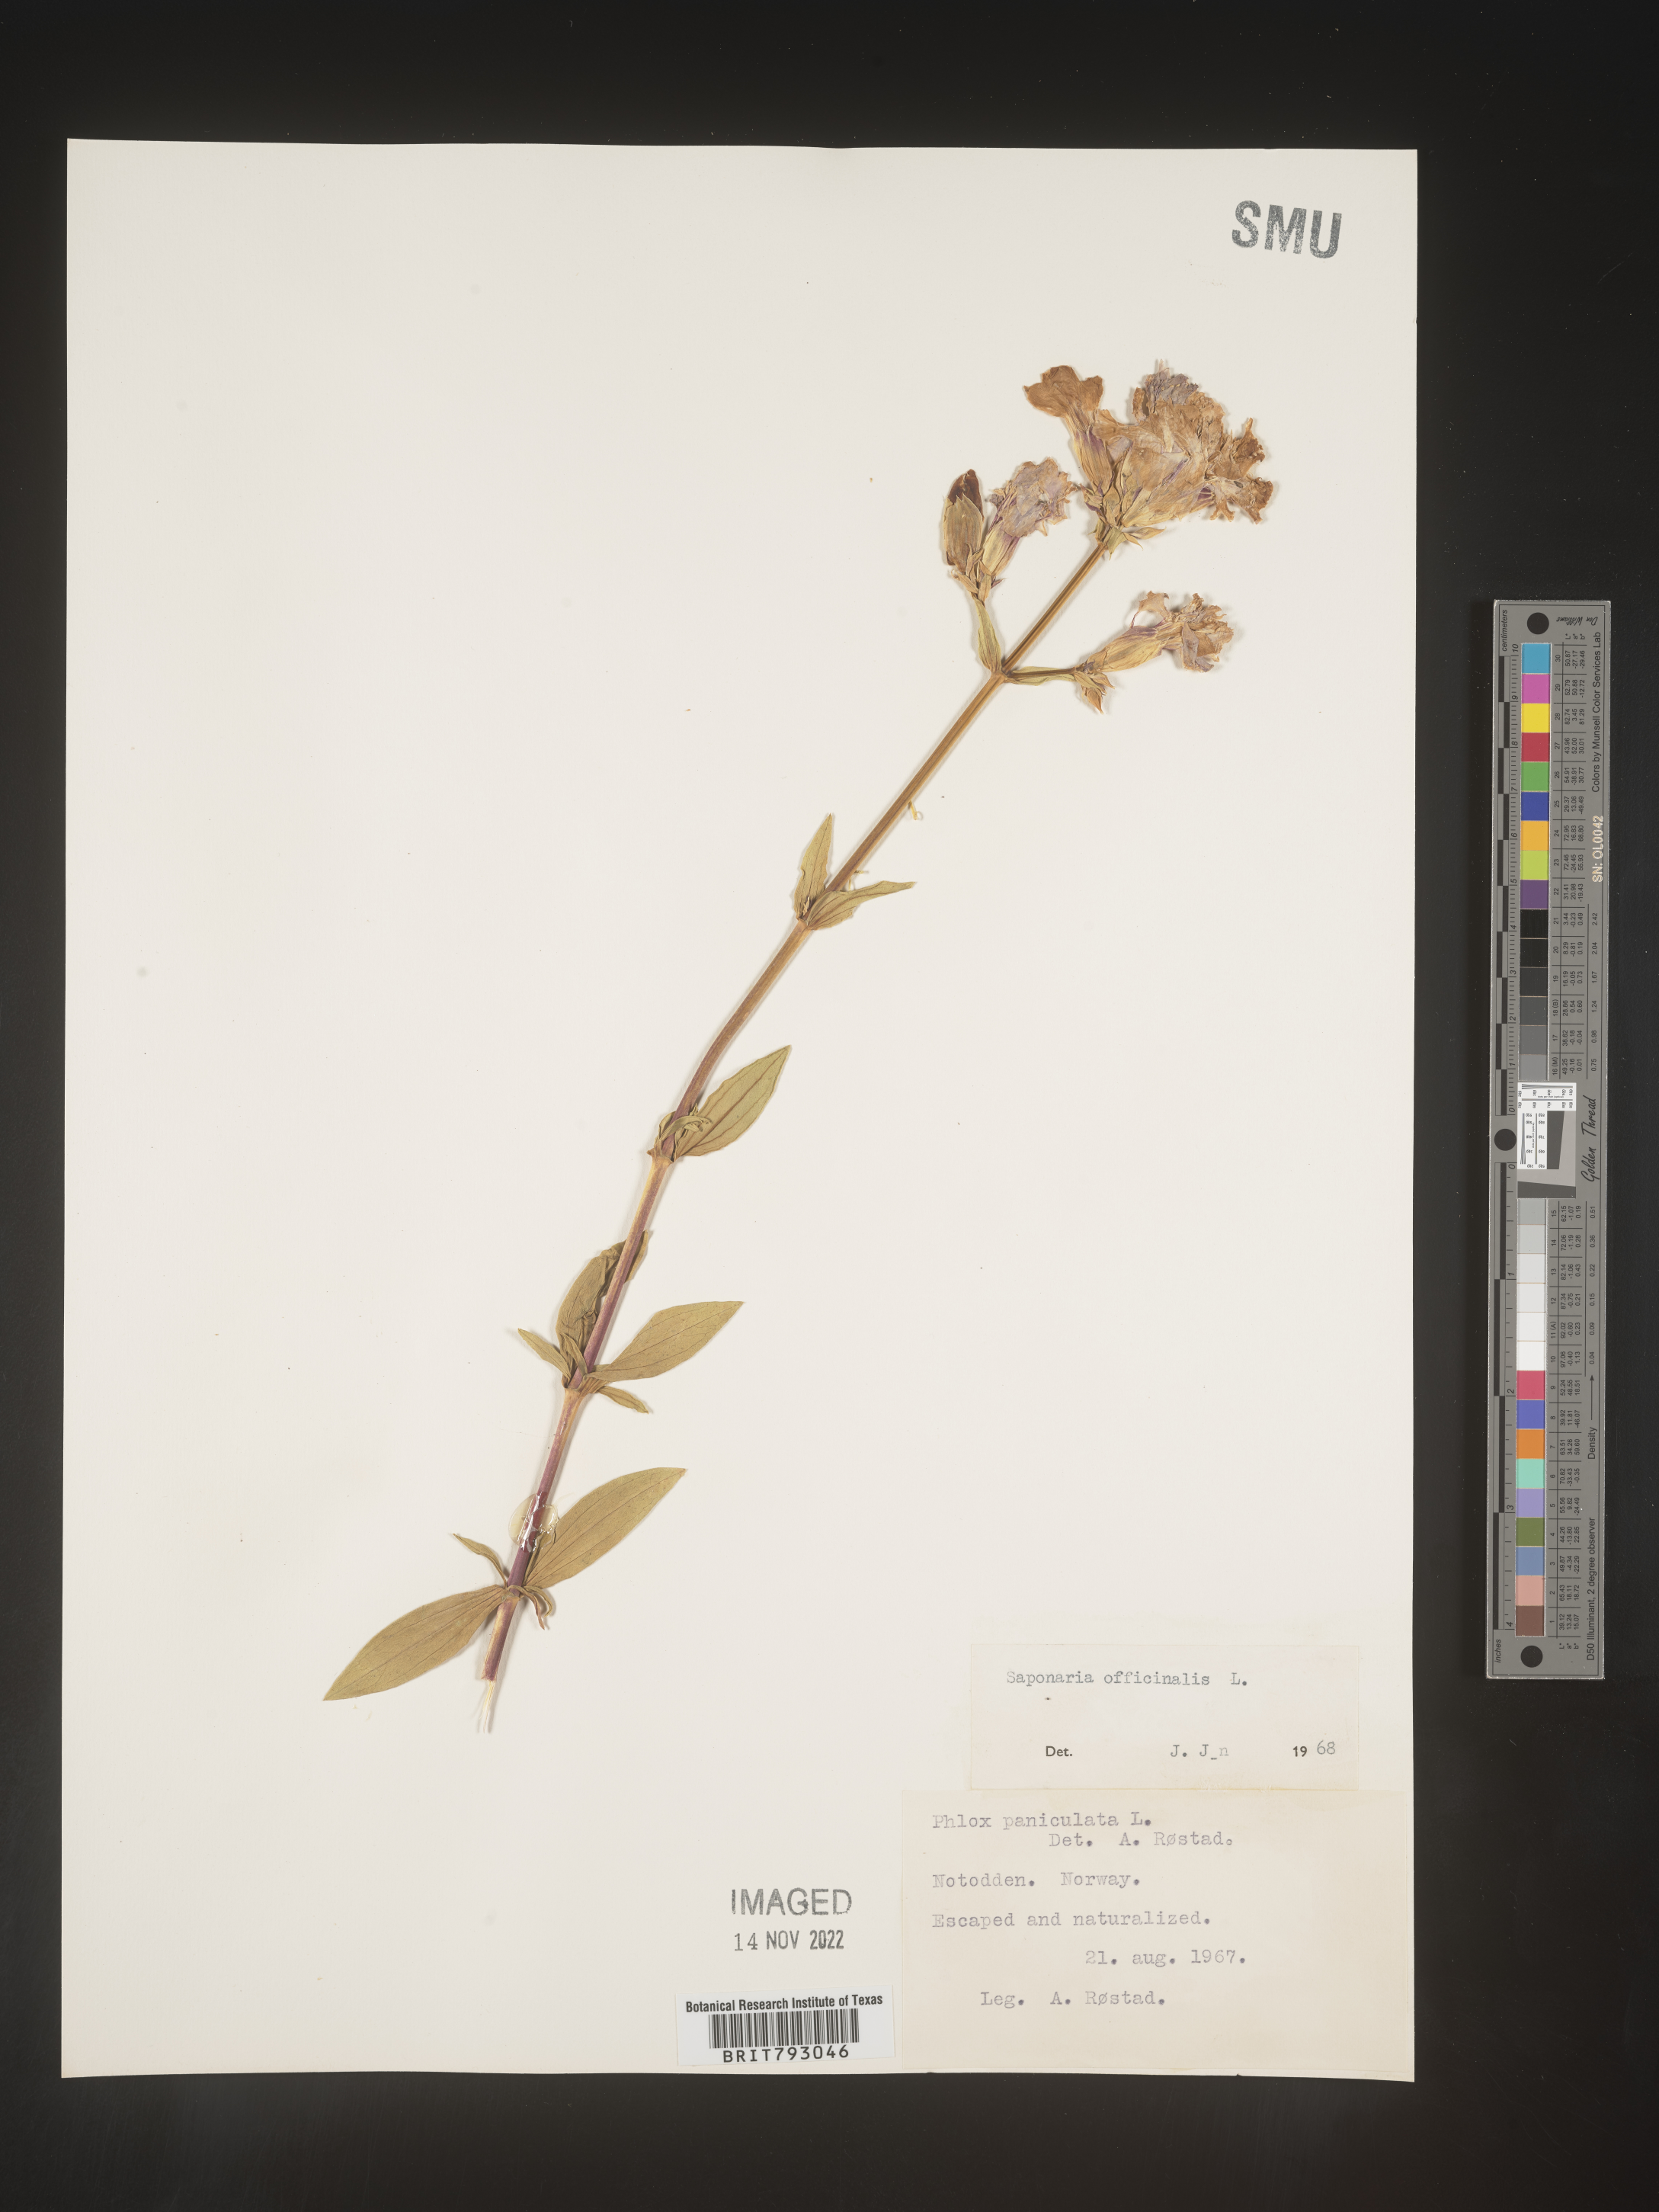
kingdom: Plantae
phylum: Tracheophyta
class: Magnoliopsida
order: Caryophyllales
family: Caryophyllaceae
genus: Saponaria
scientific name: Saponaria
